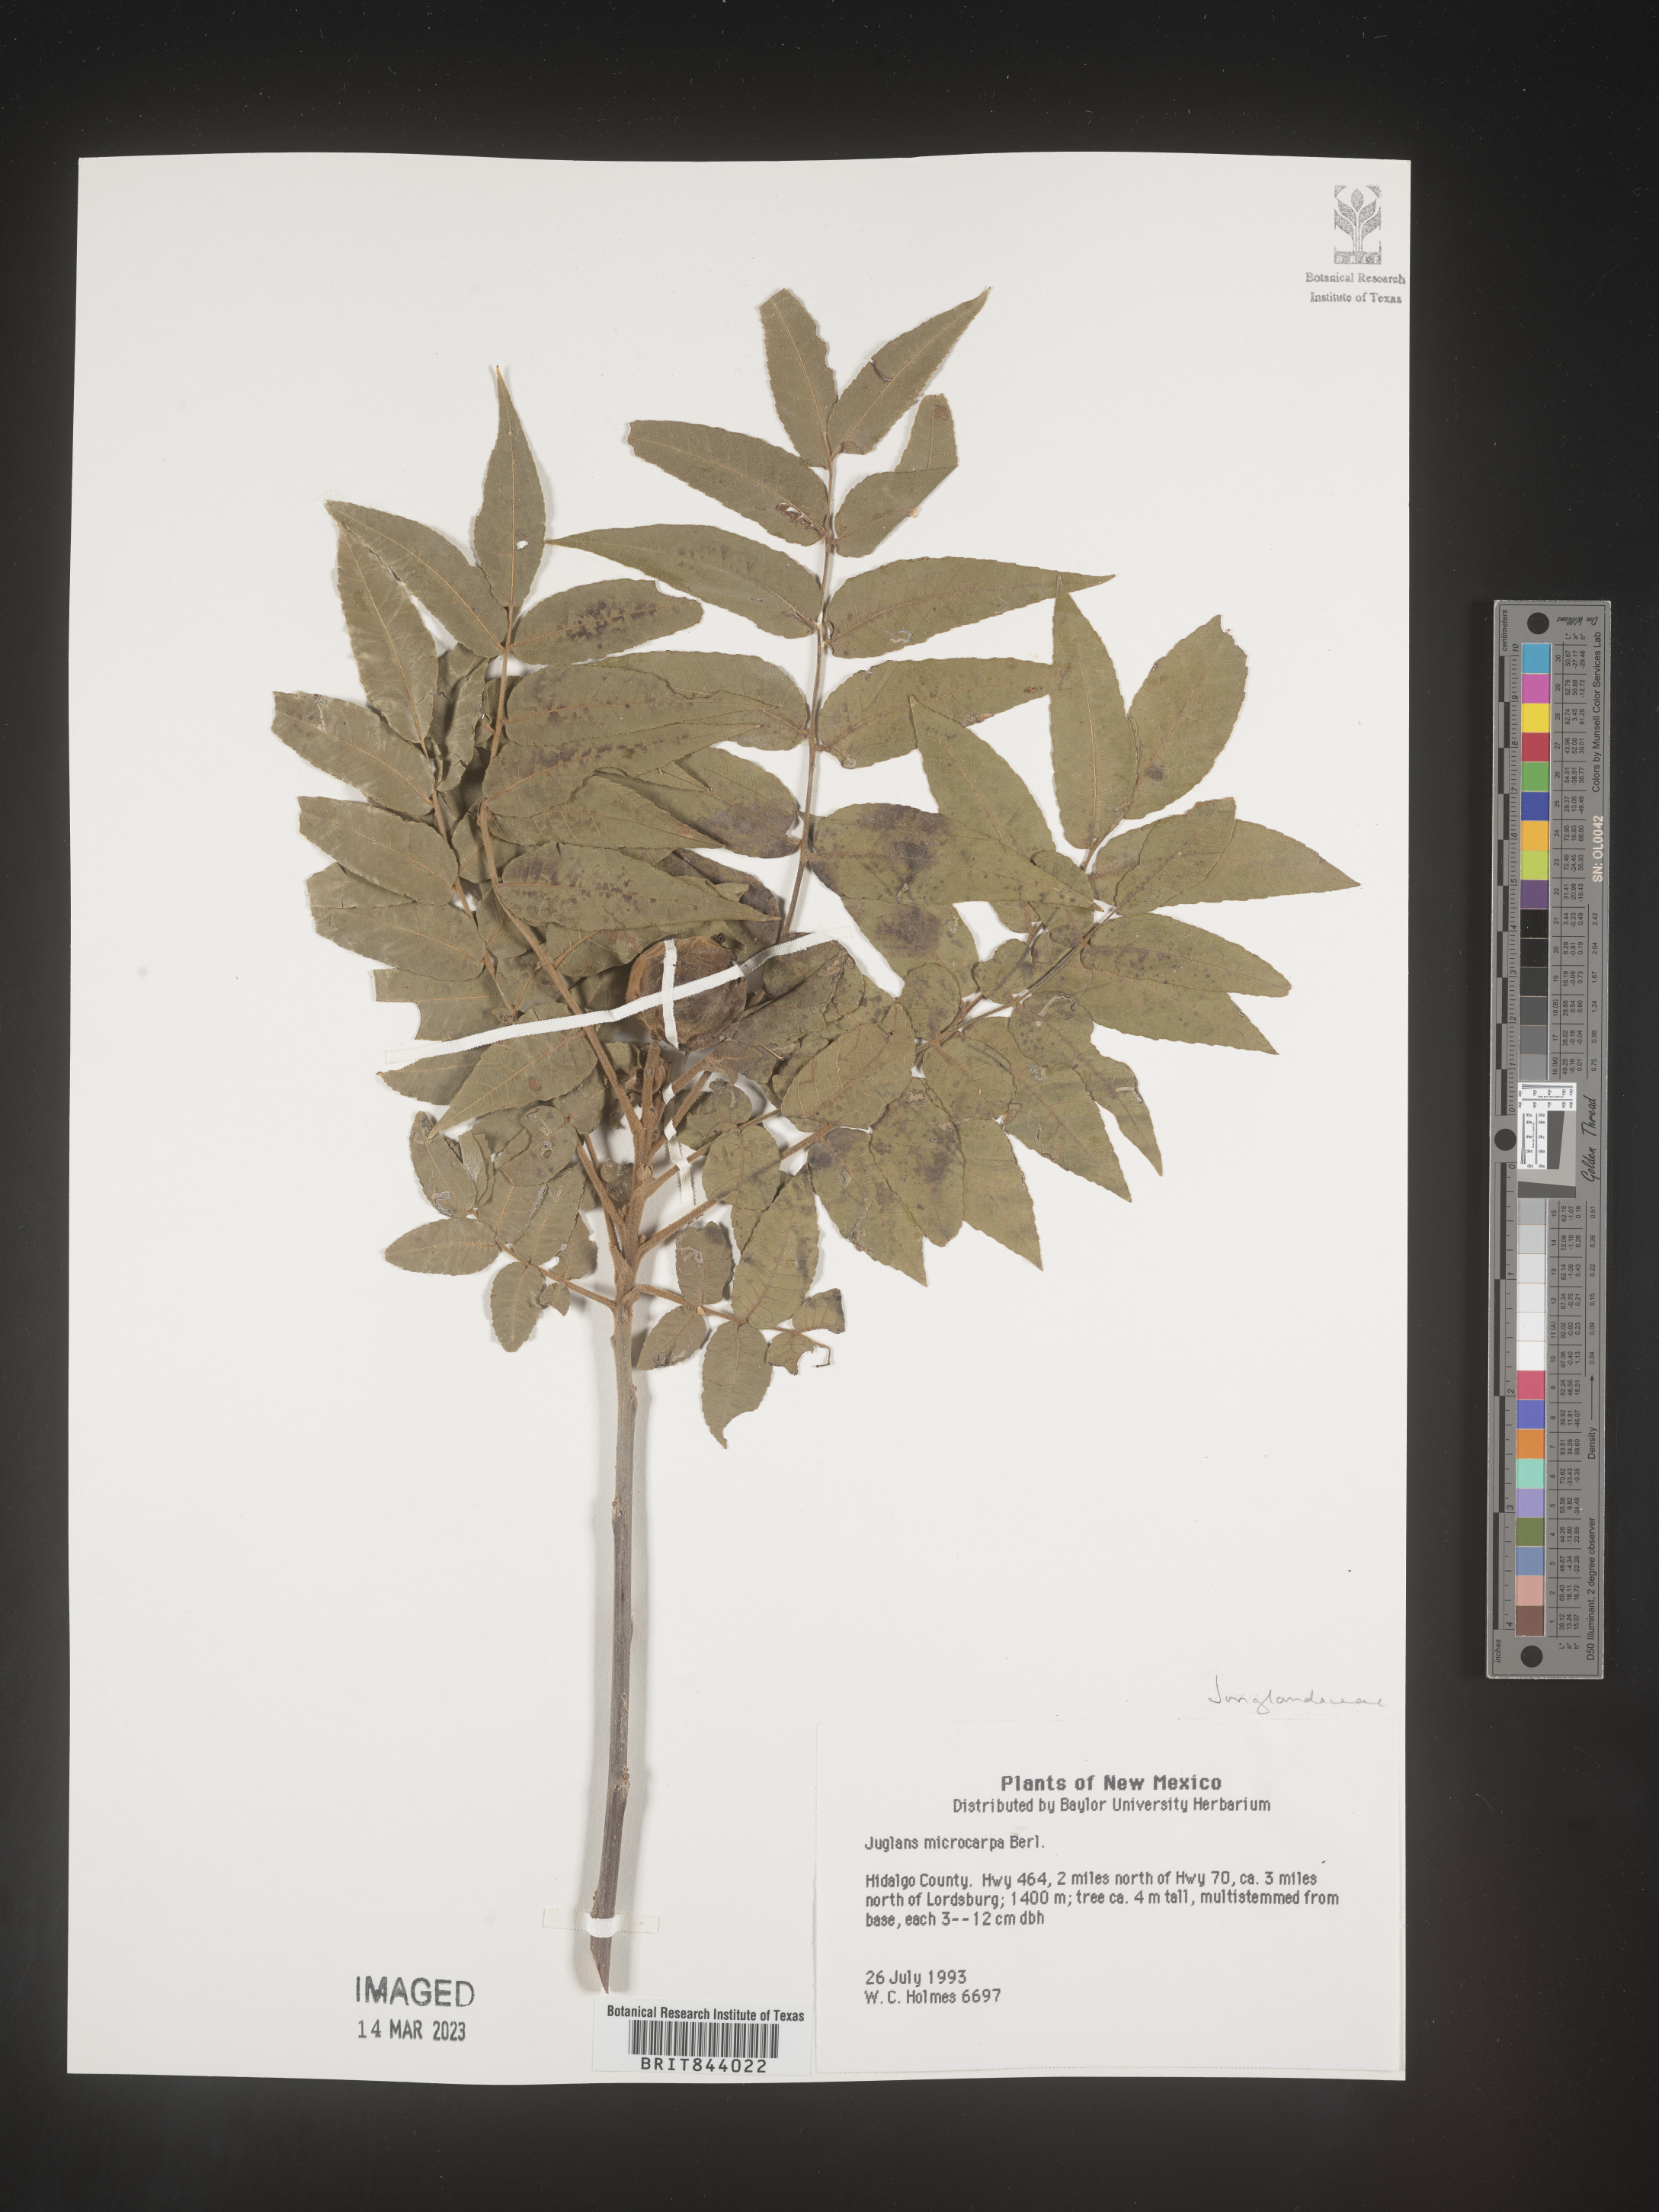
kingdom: Plantae
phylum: Tracheophyta
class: Magnoliopsida
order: Fagales
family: Juglandaceae
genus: Juglans
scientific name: Juglans microcarpa
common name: Texas walnut
